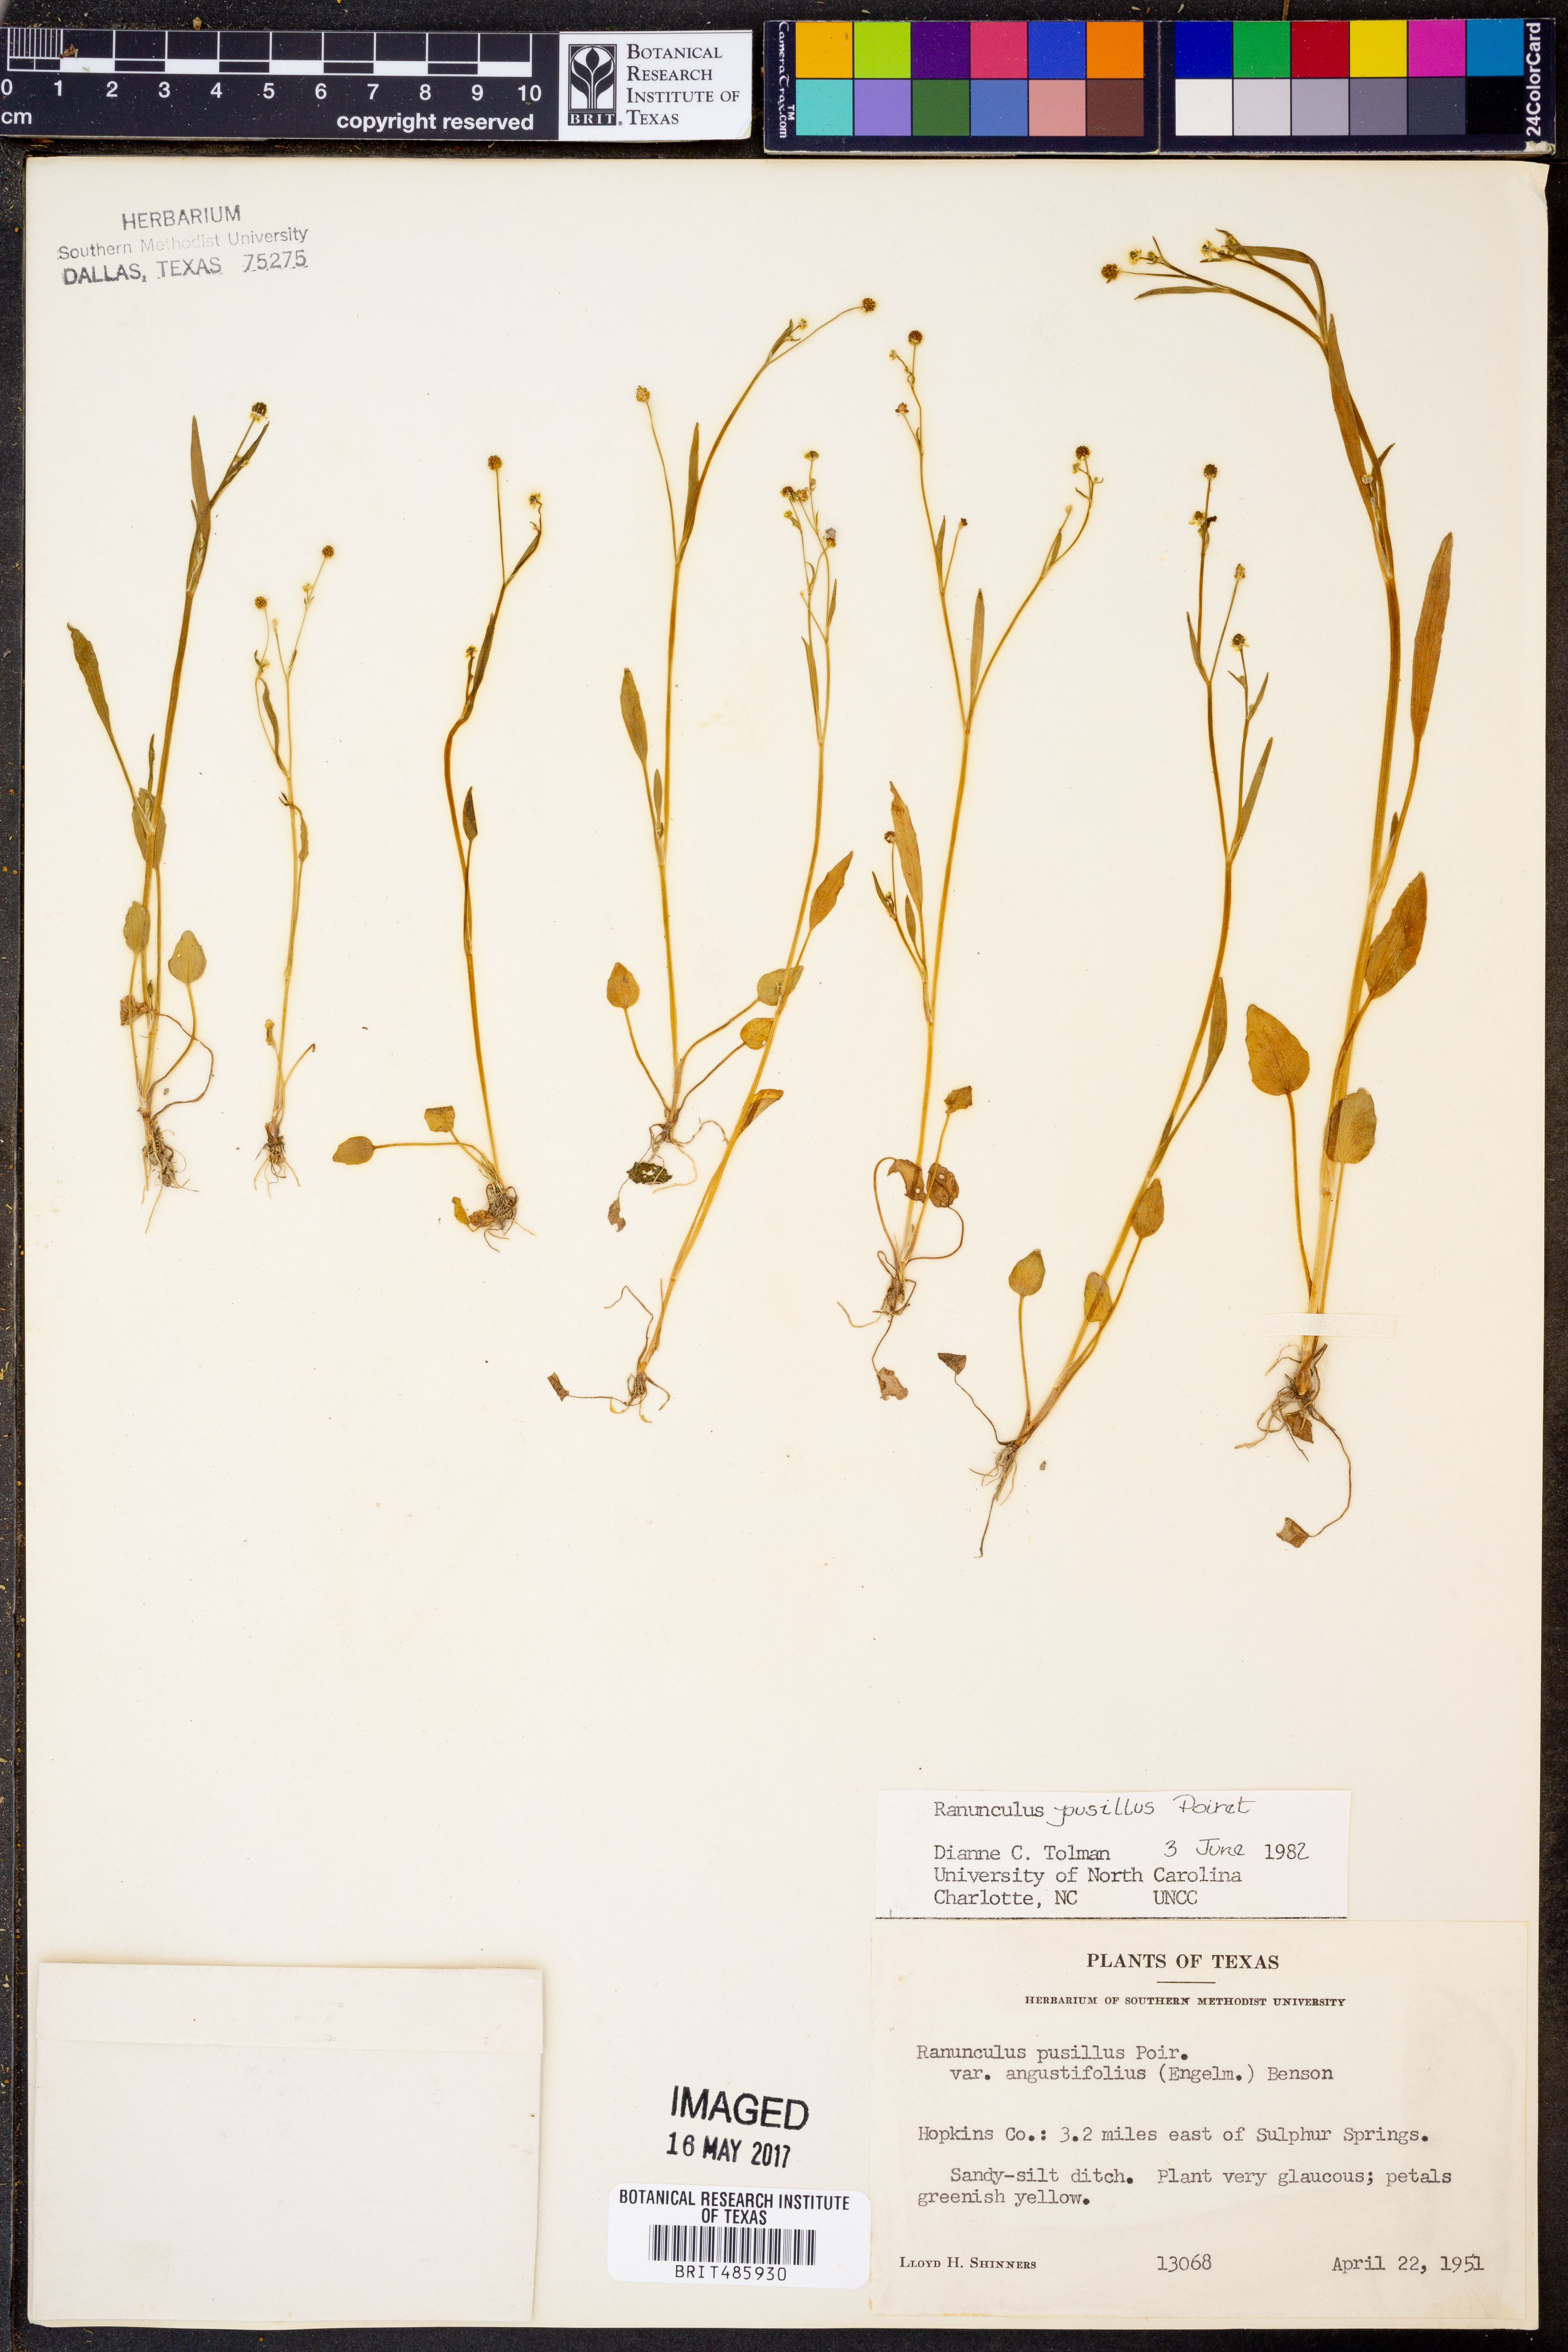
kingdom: Plantae
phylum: Tracheophyta
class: Magnoliopsida
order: Ranunculales
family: Ranunculaceae
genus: Ranunculus
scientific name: Ranunculus pusillus
